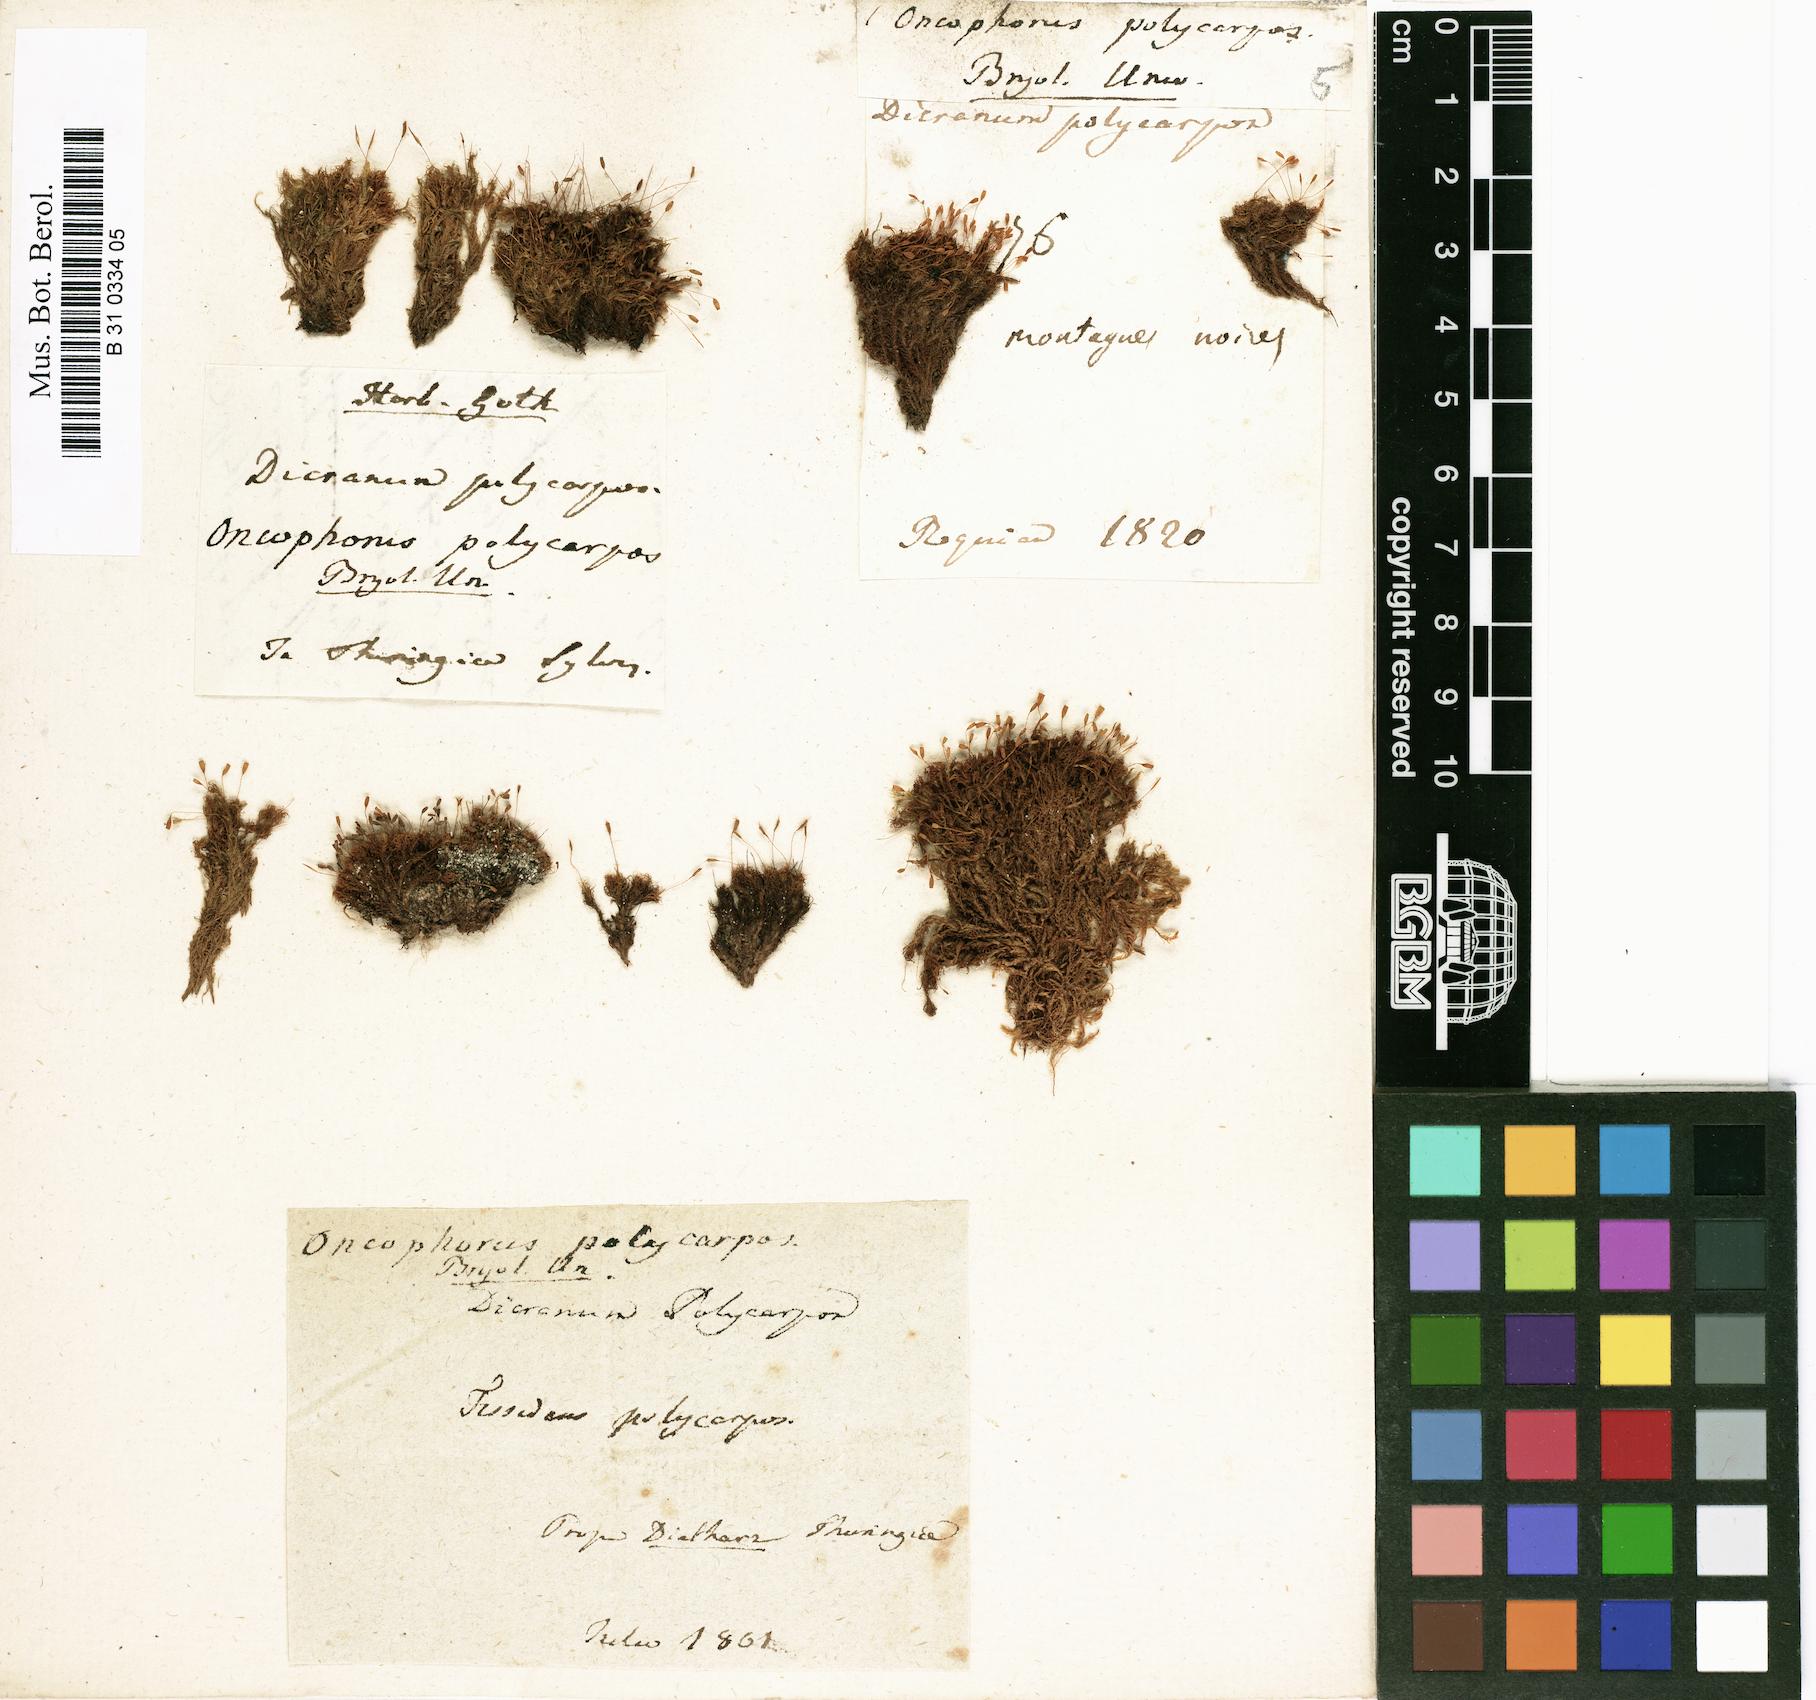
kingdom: Plantae
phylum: Bryophyta
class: Bryopsida
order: Dicranales
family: Rhabdoweisiaceae
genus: Cynodontium
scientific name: Cynodontium polycarpon
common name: Many-fruited dogtooth moss
